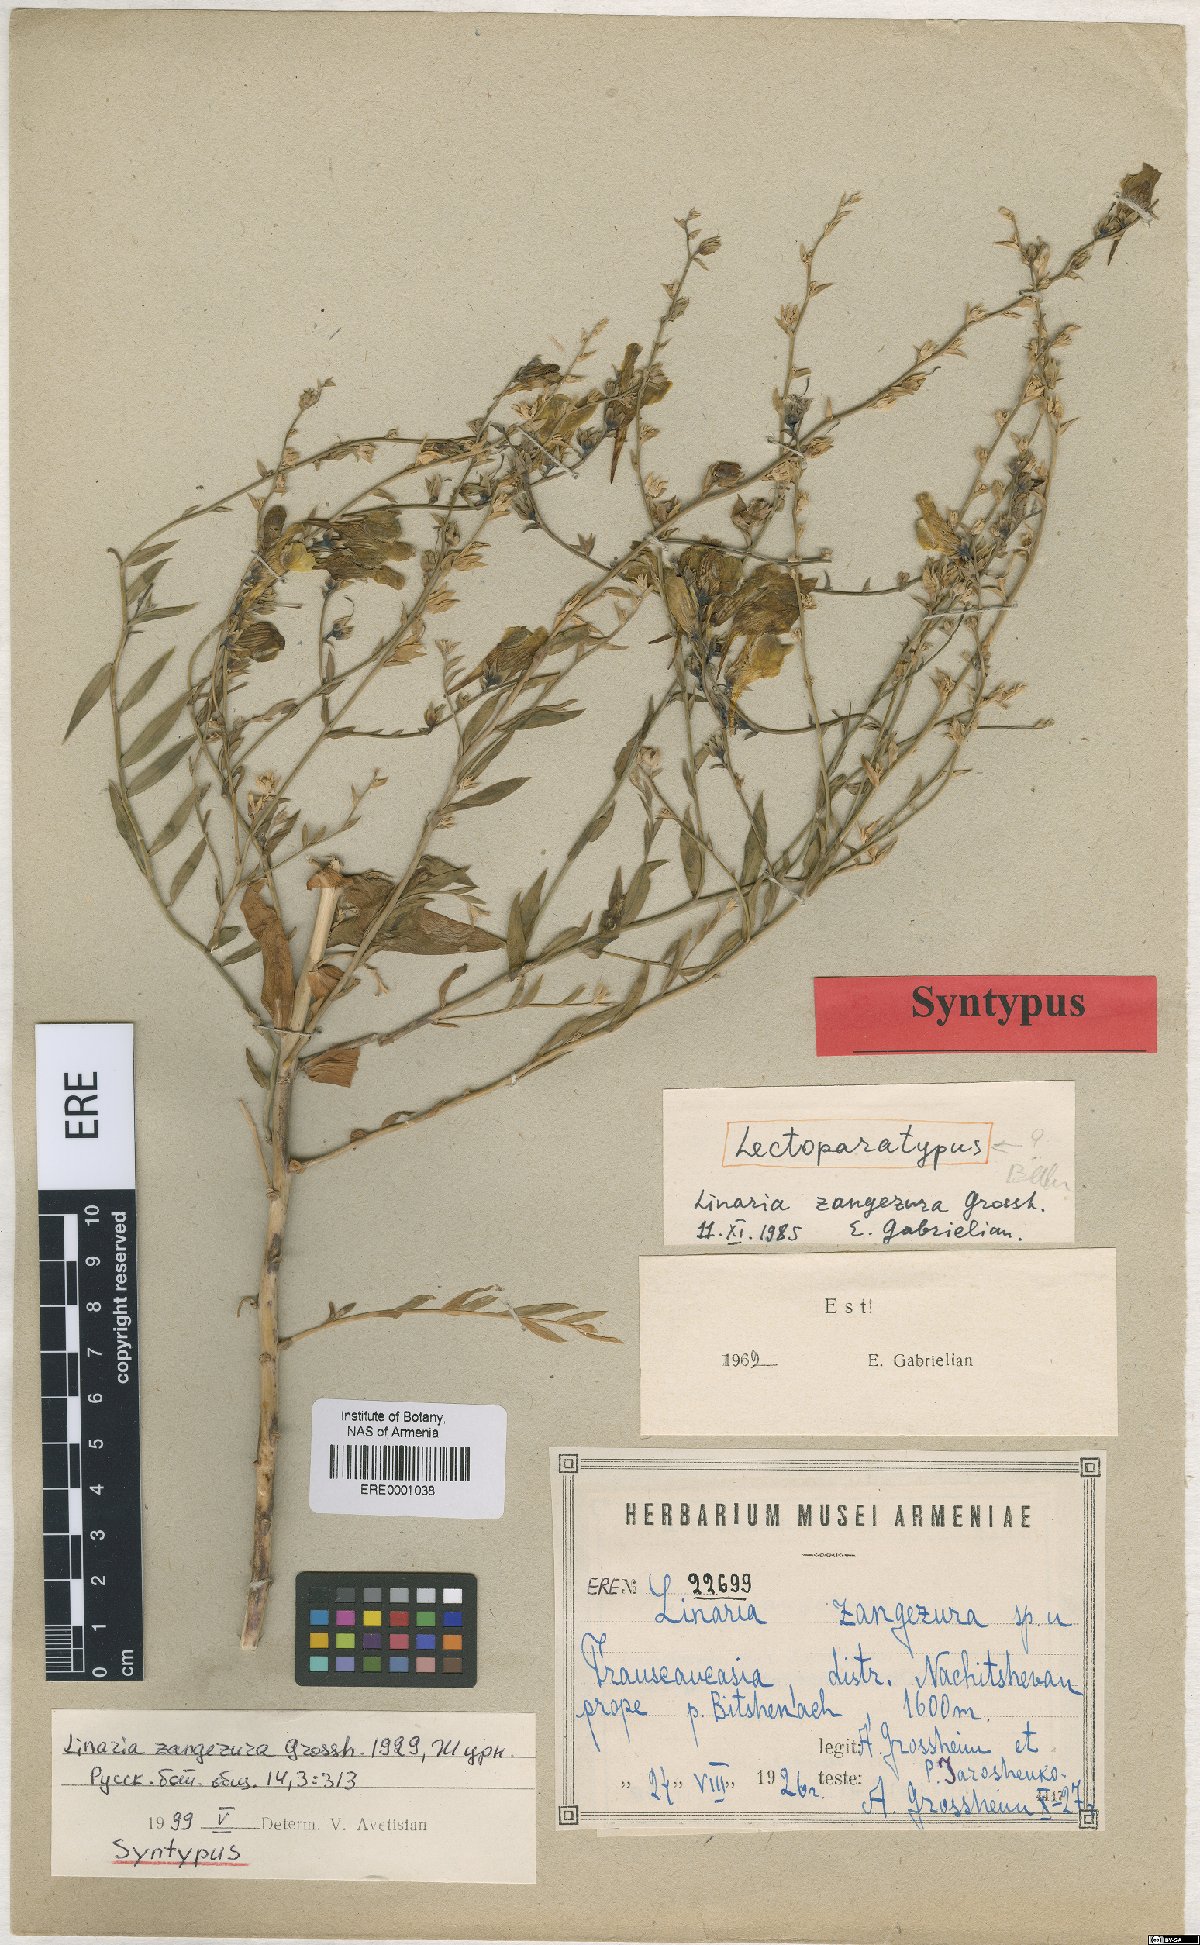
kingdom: Plantae
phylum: Tracheophyta
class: Magnoliopsida
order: Lamiales
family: Plantaginaceae
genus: Linaria
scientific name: Linaria dalmatica
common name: Dalmatian toadflax
